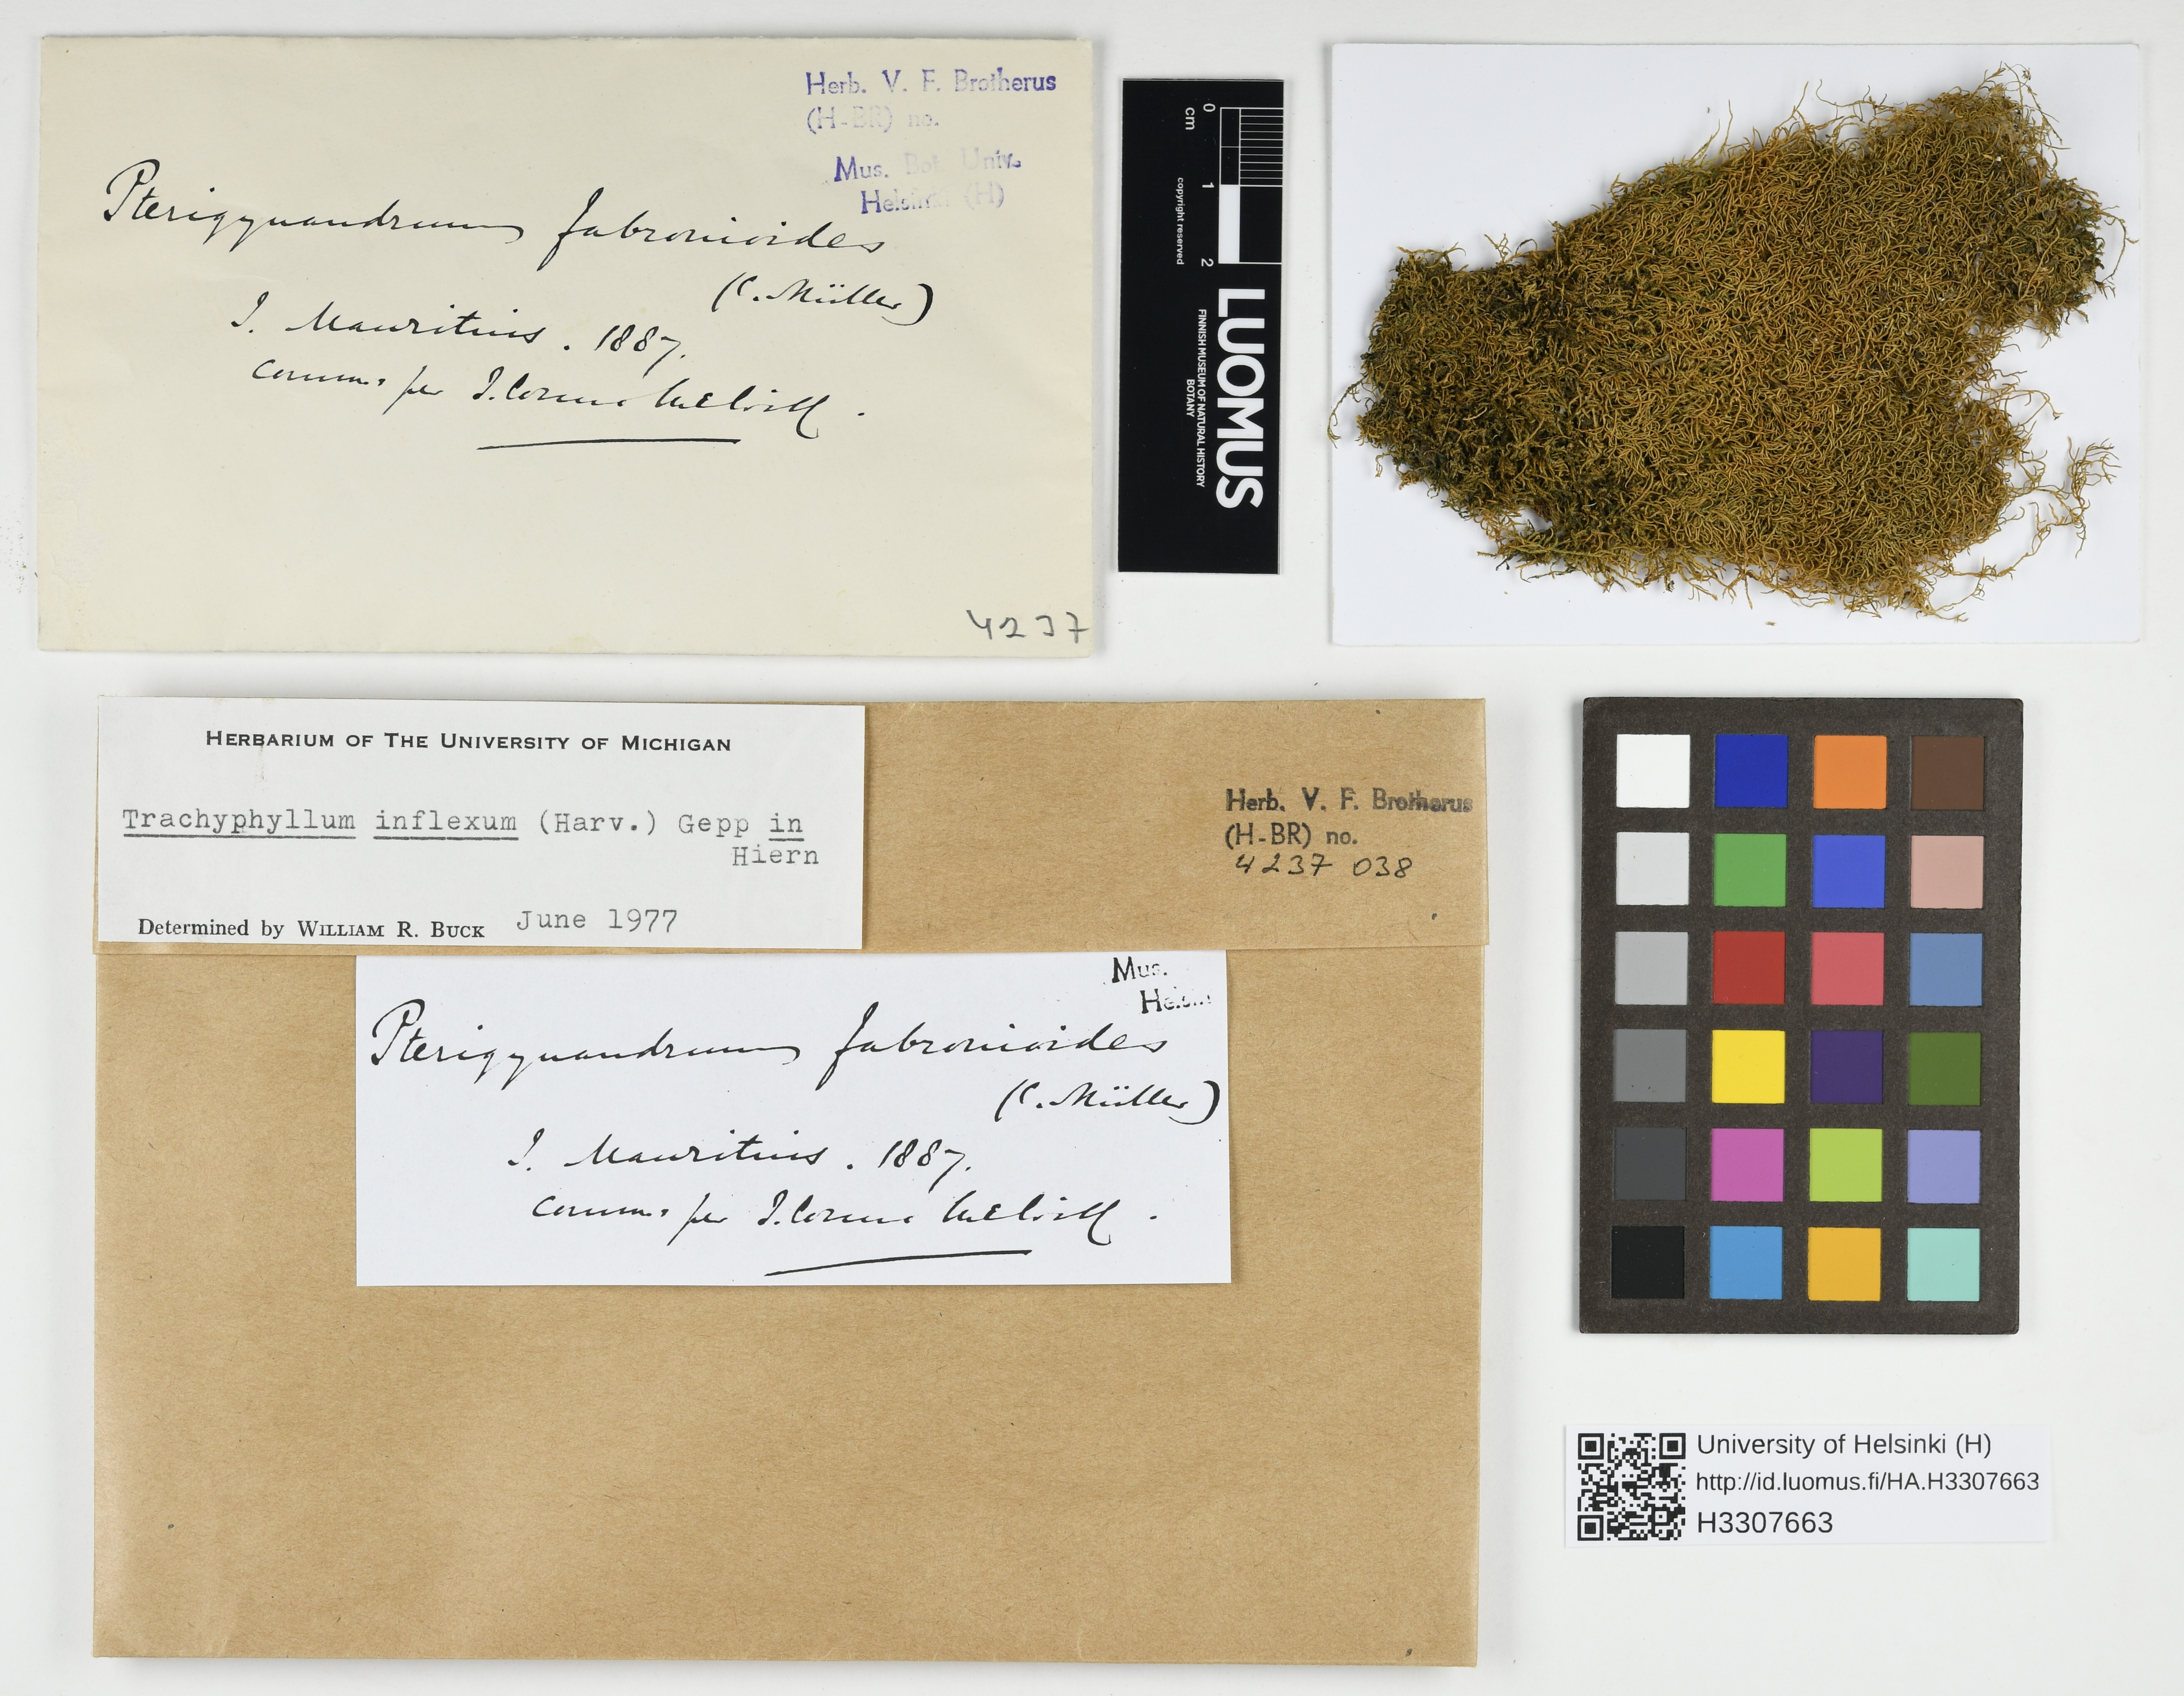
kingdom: Plantae
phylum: Bryophyta
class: Bryopsida
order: Hypnales
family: Pylaisiadelphaceae
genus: Trachyphyllum
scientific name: Trachyphyllum inflexum
